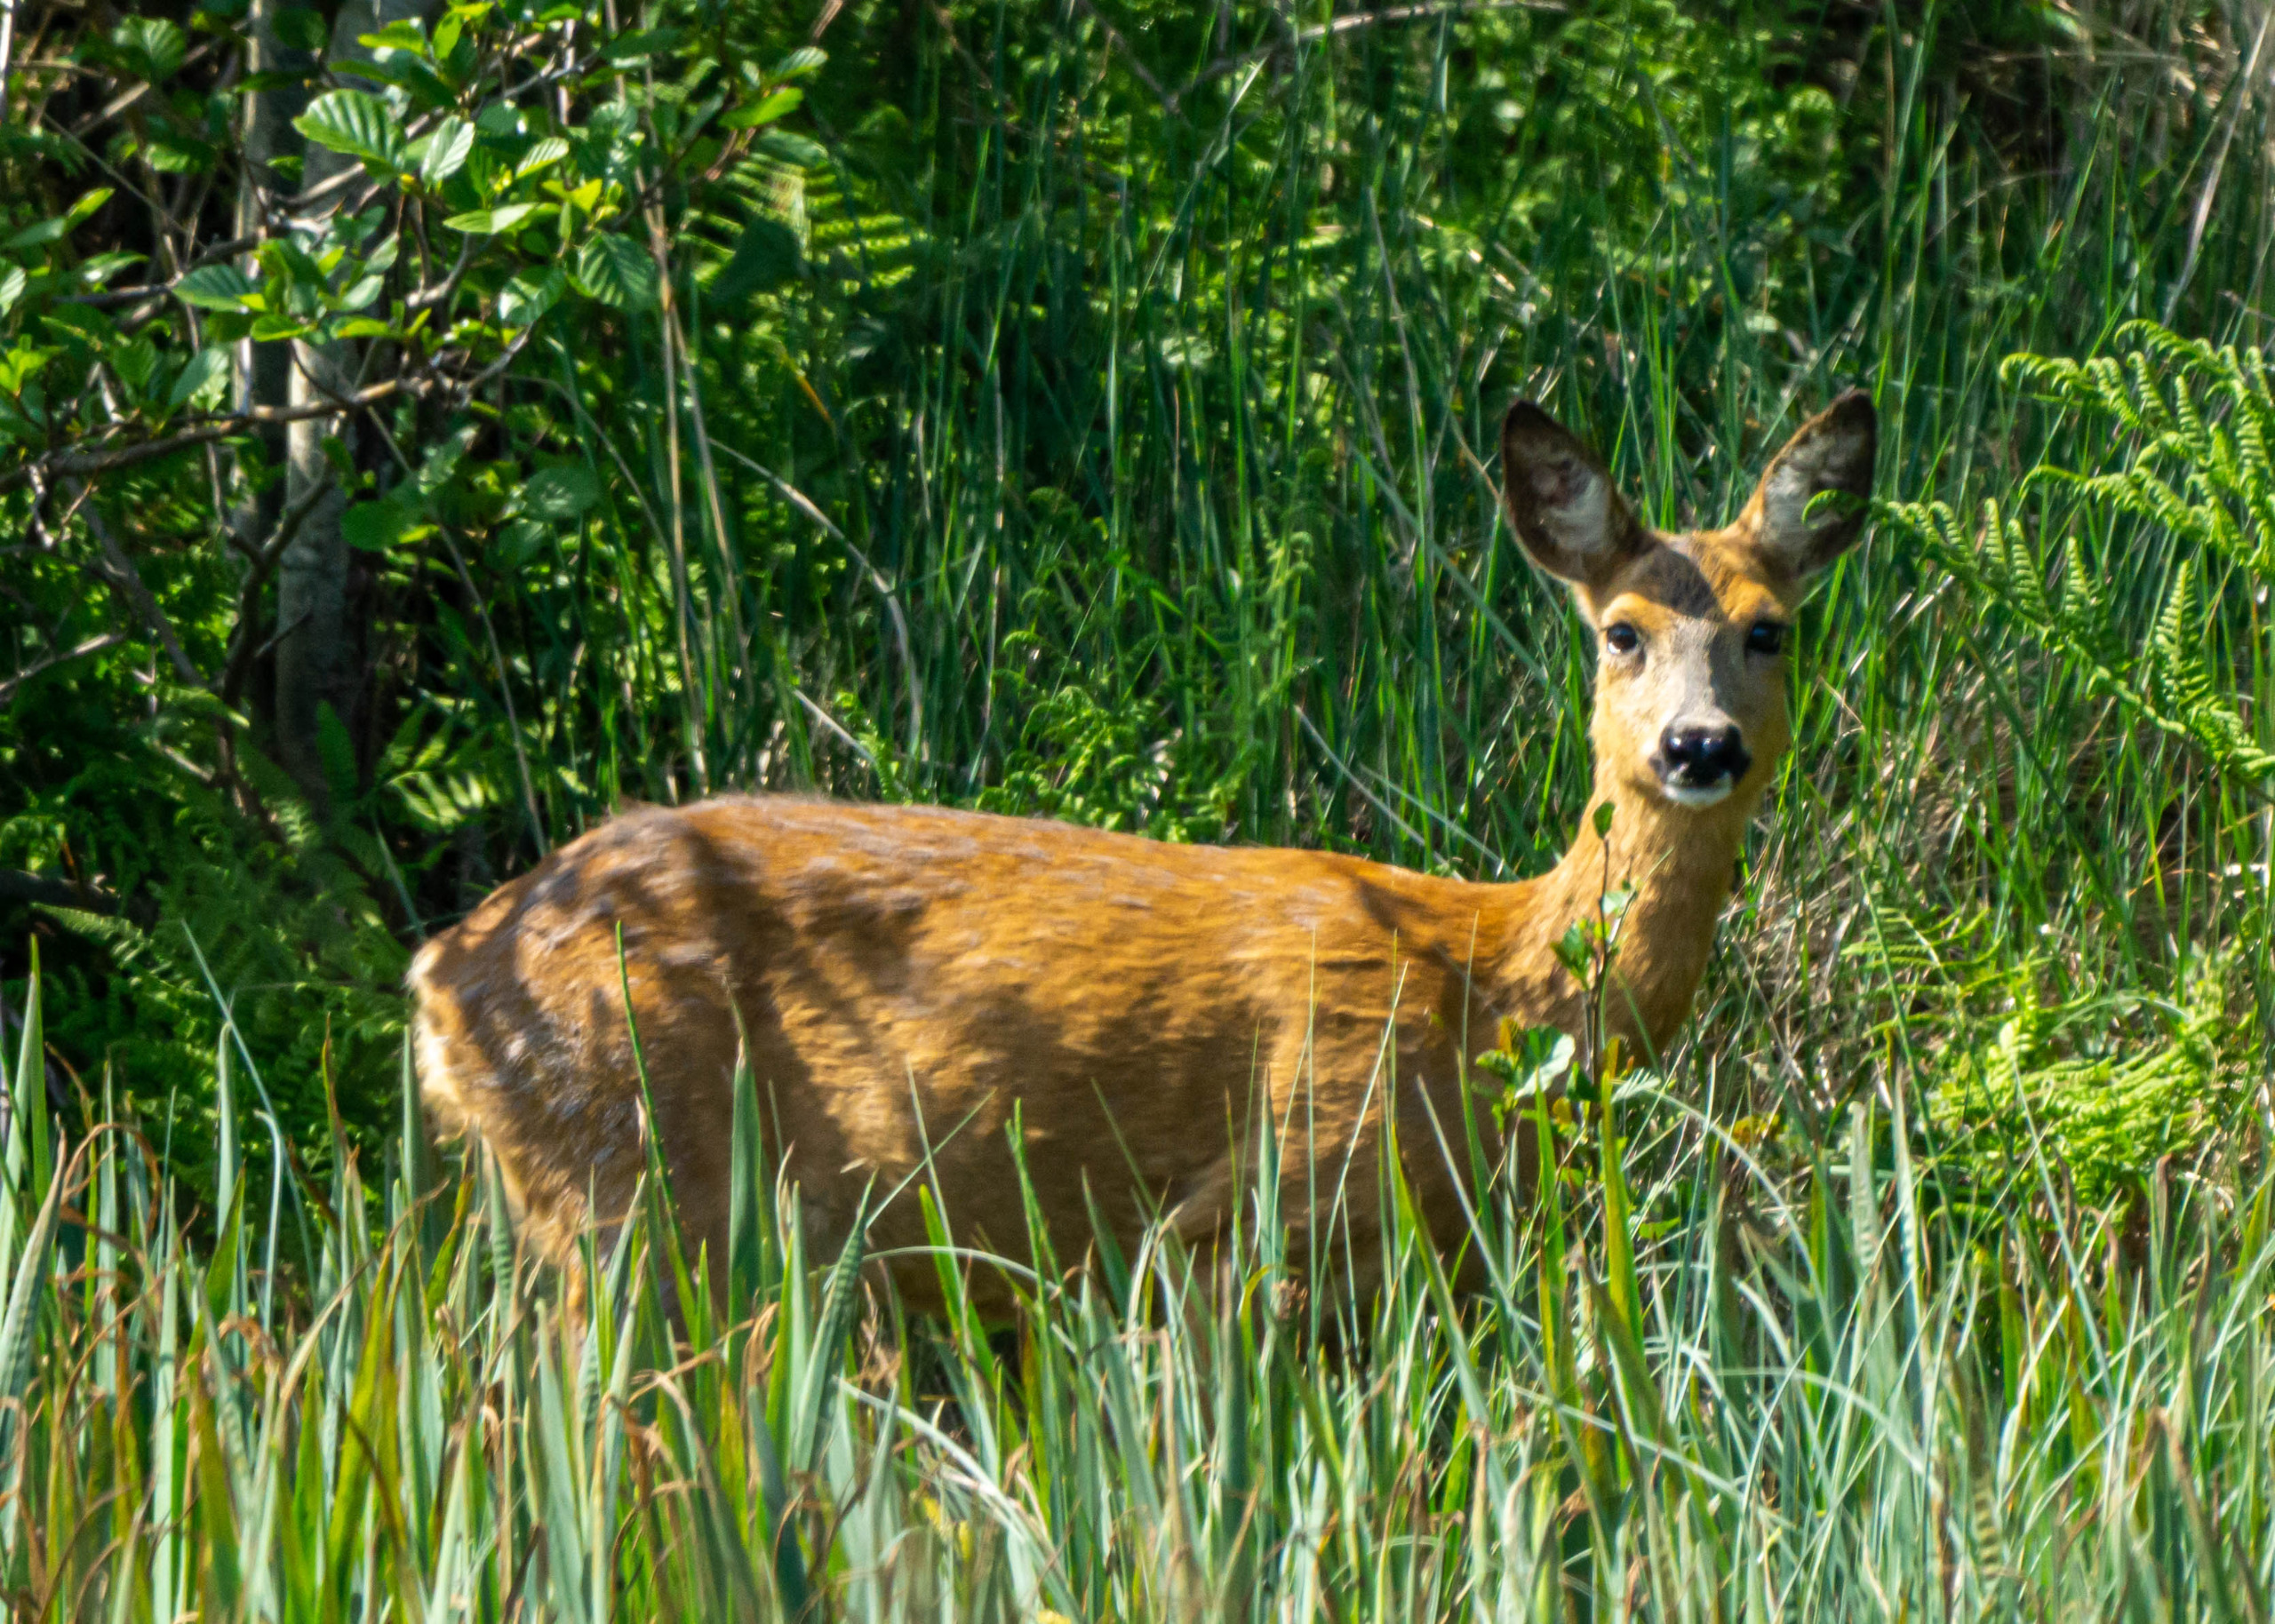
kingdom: Animalia
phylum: Chordata
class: Mammalia
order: Artiodactyla
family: Cervidae
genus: Capreolus
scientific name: Capreolus capreolus
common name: Rådyr
